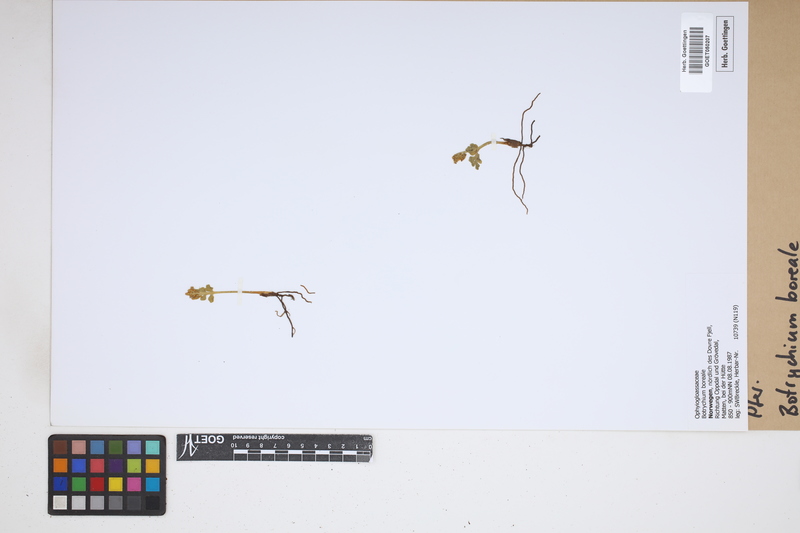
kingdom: Plantae
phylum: Tracheophyta
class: Polypodiopsida
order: Ophioglossales
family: Ophioglossaceae
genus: Botrychium
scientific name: Botrychium boreale
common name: Boreal moonwort
